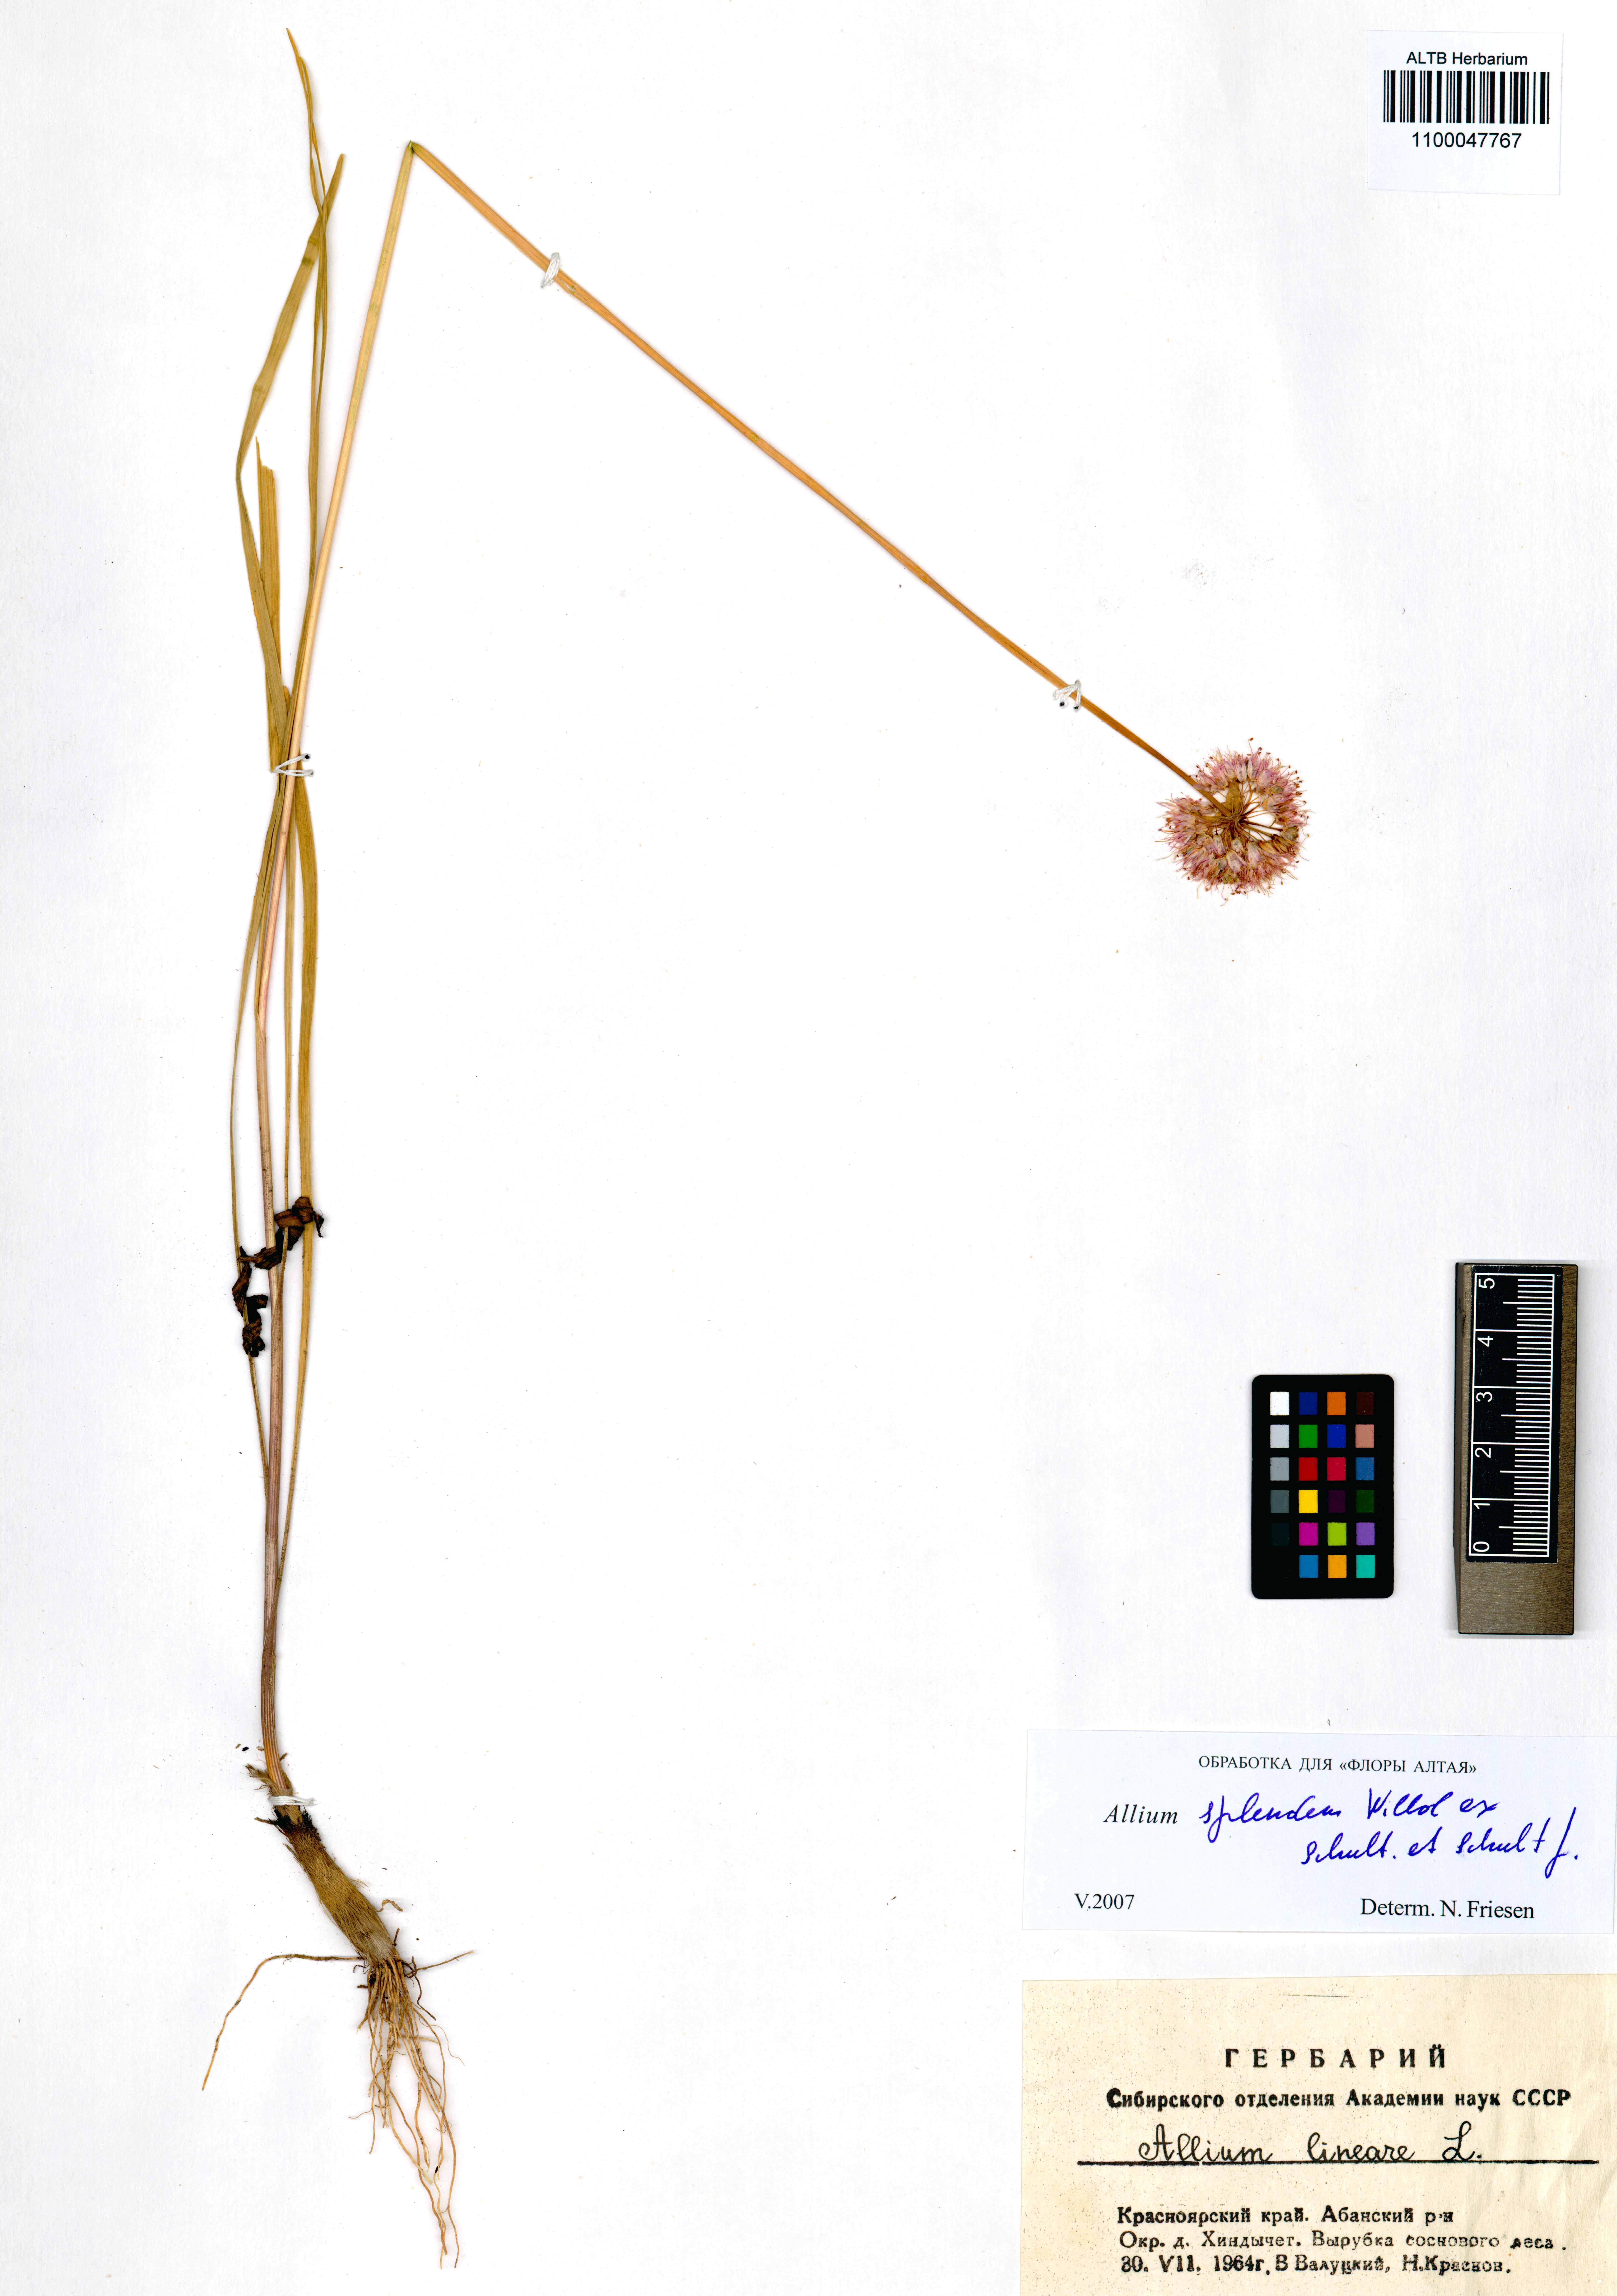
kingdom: Plantae
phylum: Tracheophyta
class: Liliopsida
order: Asparagales
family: Amaryllidaceae
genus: Allium
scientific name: Allium splendens
